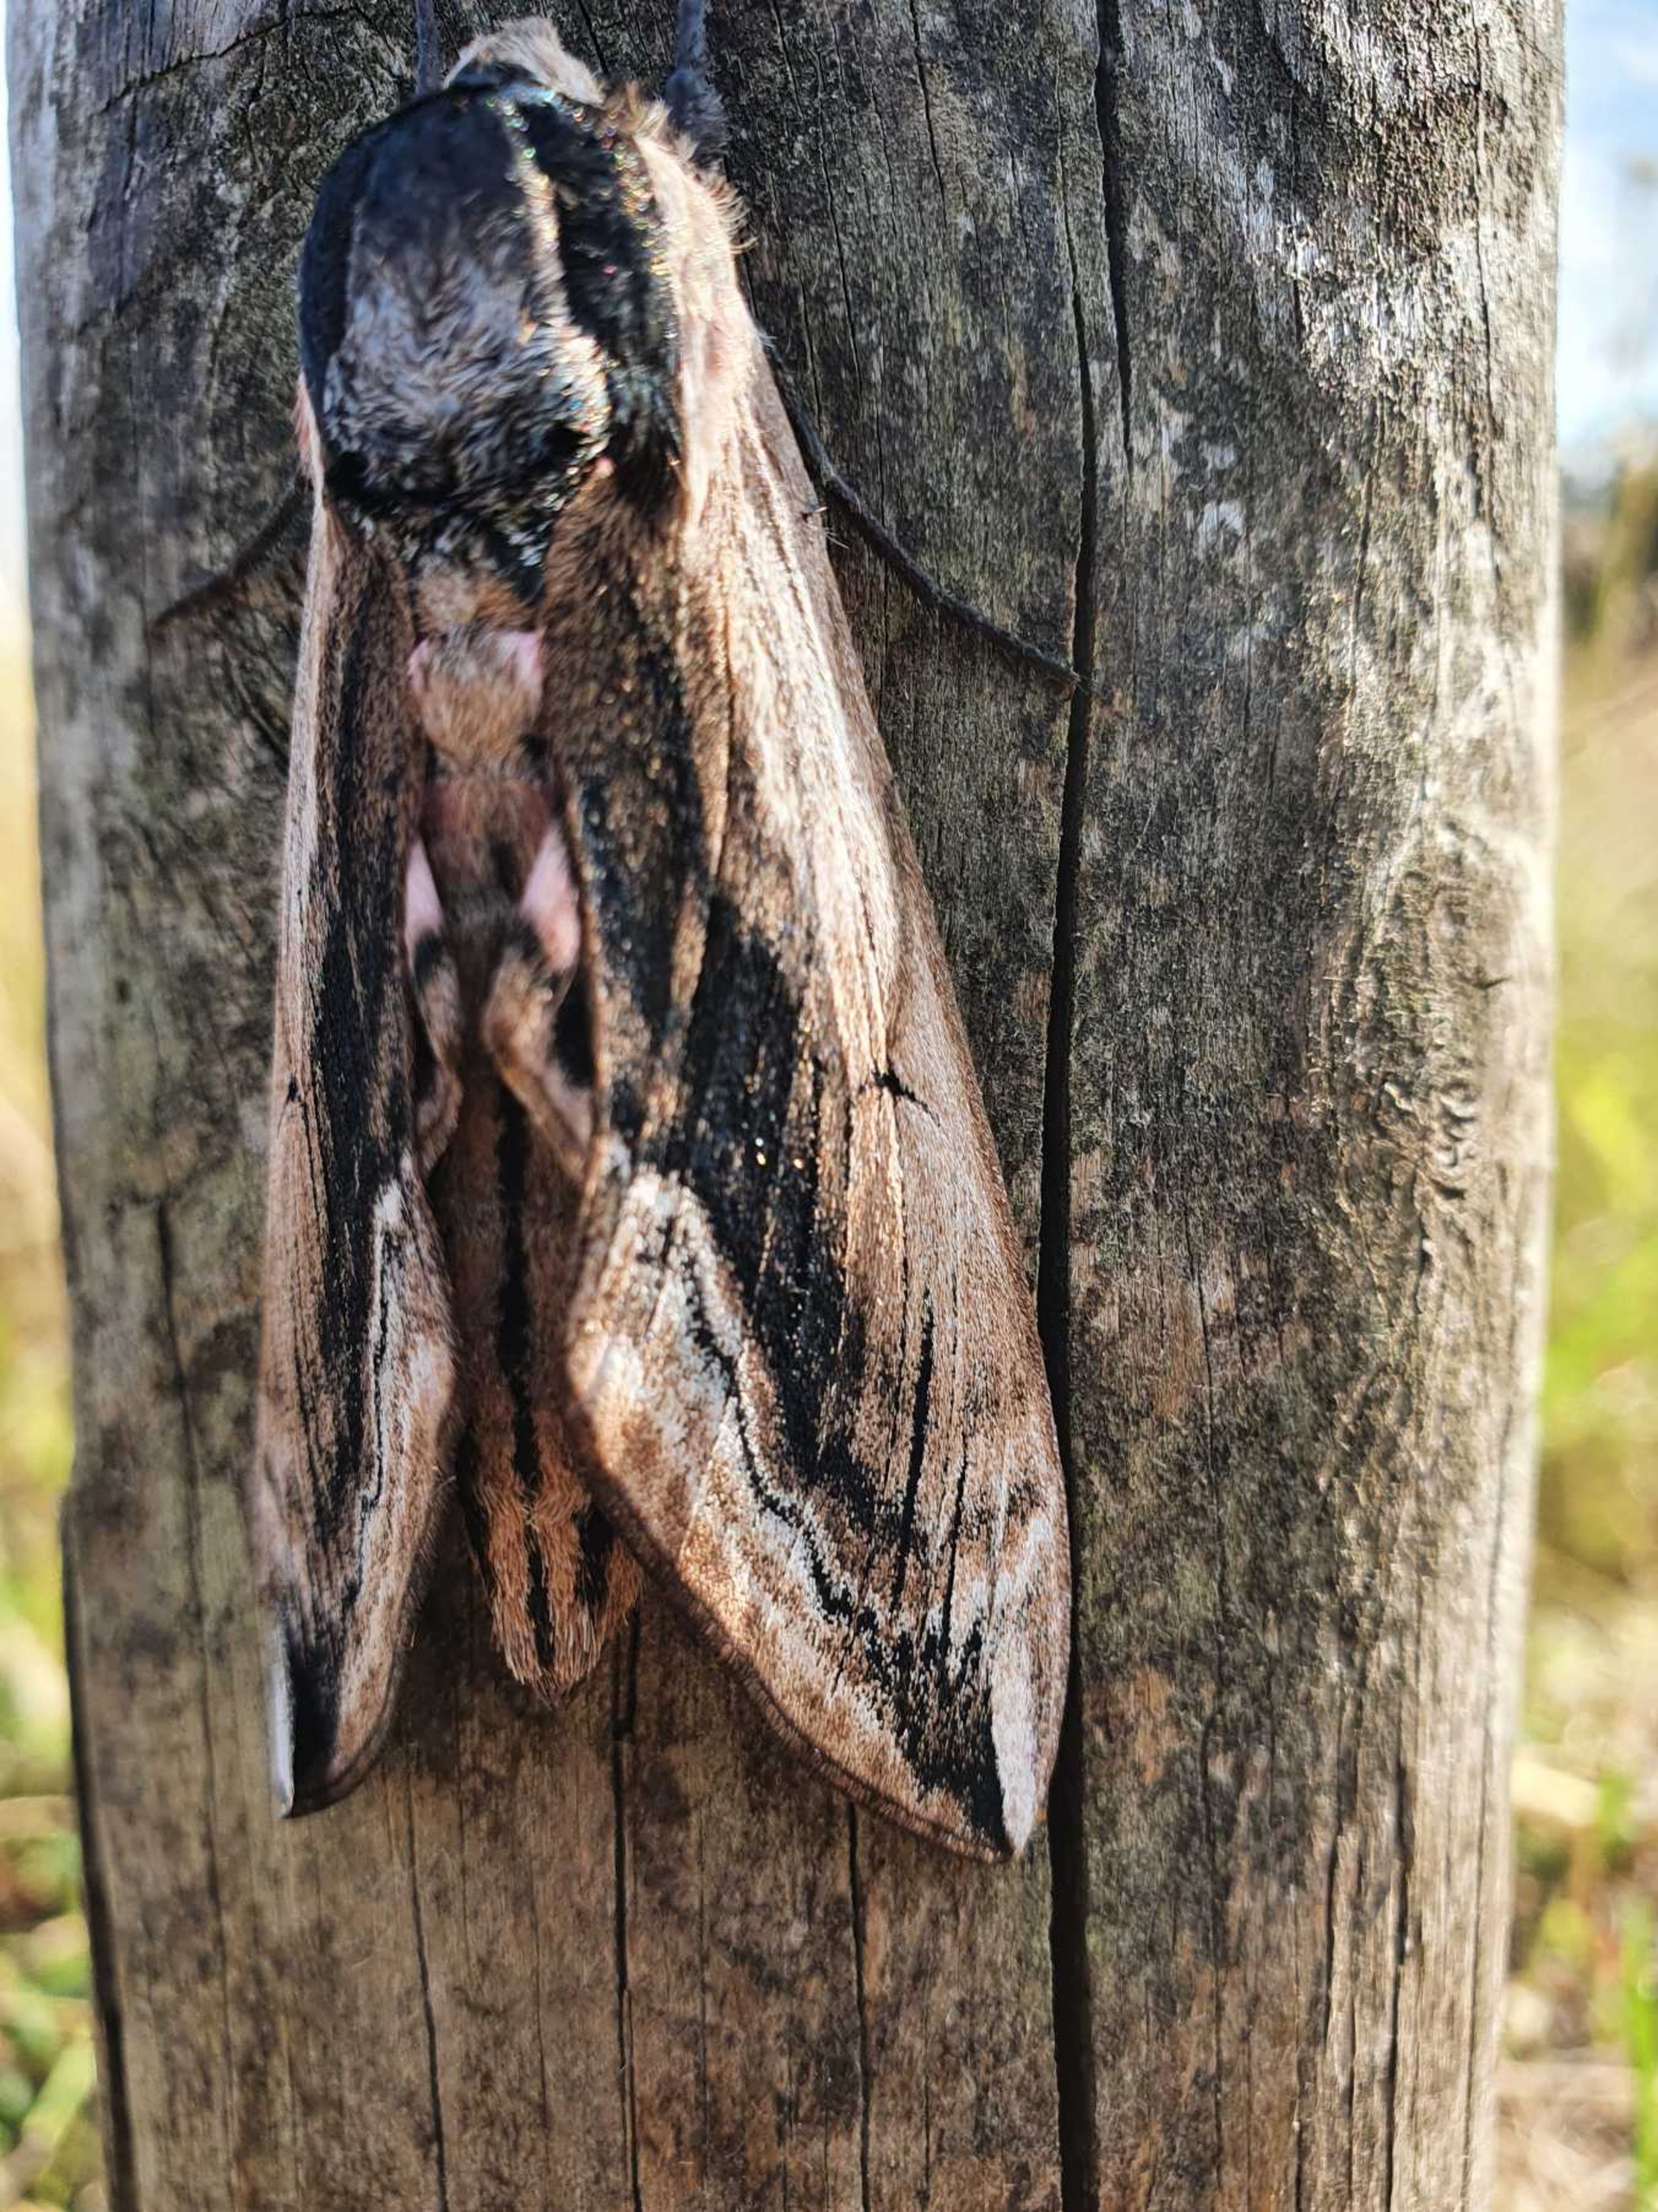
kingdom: Animalia
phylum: Arthropoda
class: Insecta
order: Lepidoptera
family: Sphingidae
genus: Sphinx
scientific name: Sphinx ligustri
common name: Ligustersværmer
